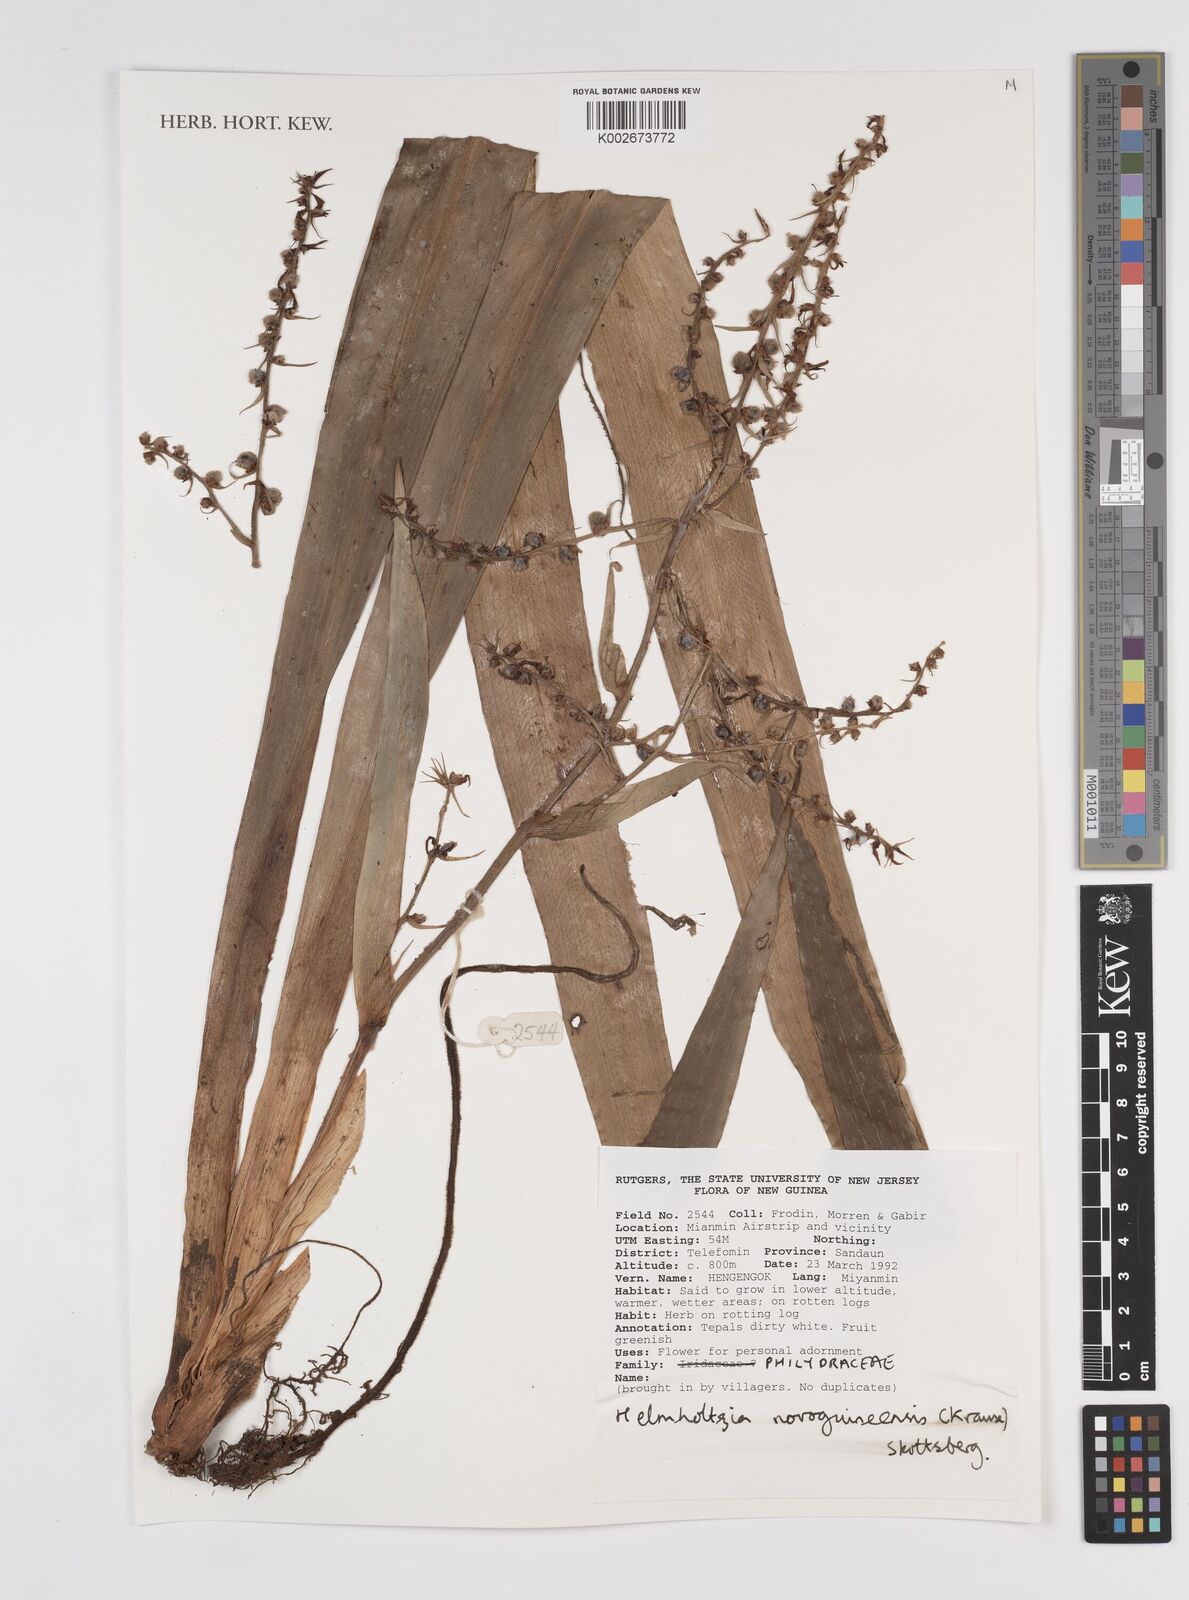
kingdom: Plantae
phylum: Tracheophyta
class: Liliopsida
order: Commelinales
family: Philydraceae
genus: Helmholtzia
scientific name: Helmholtzia novoguineensis
